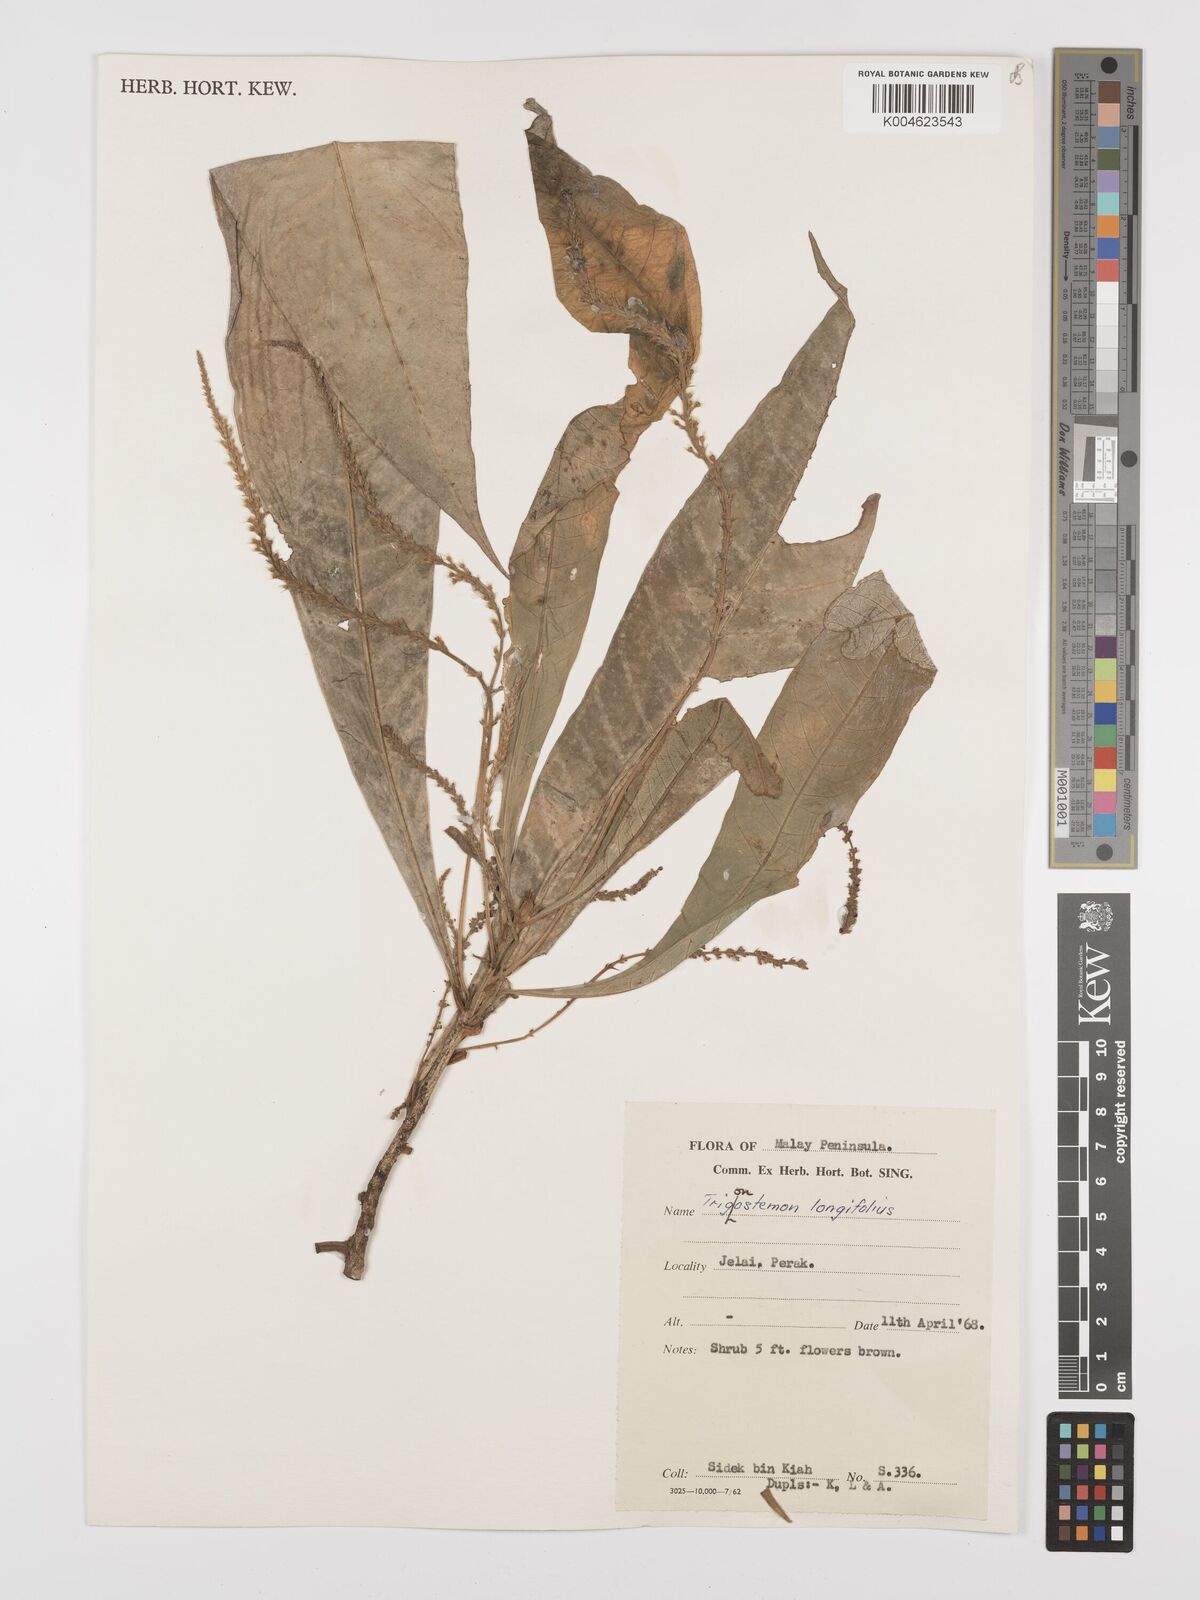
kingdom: Plantae
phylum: Tracheophyta
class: Magnoliopsida
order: Malpighiales
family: Euphorbiaceae
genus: Trigonostemon
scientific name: Trigonostemon longifolius
